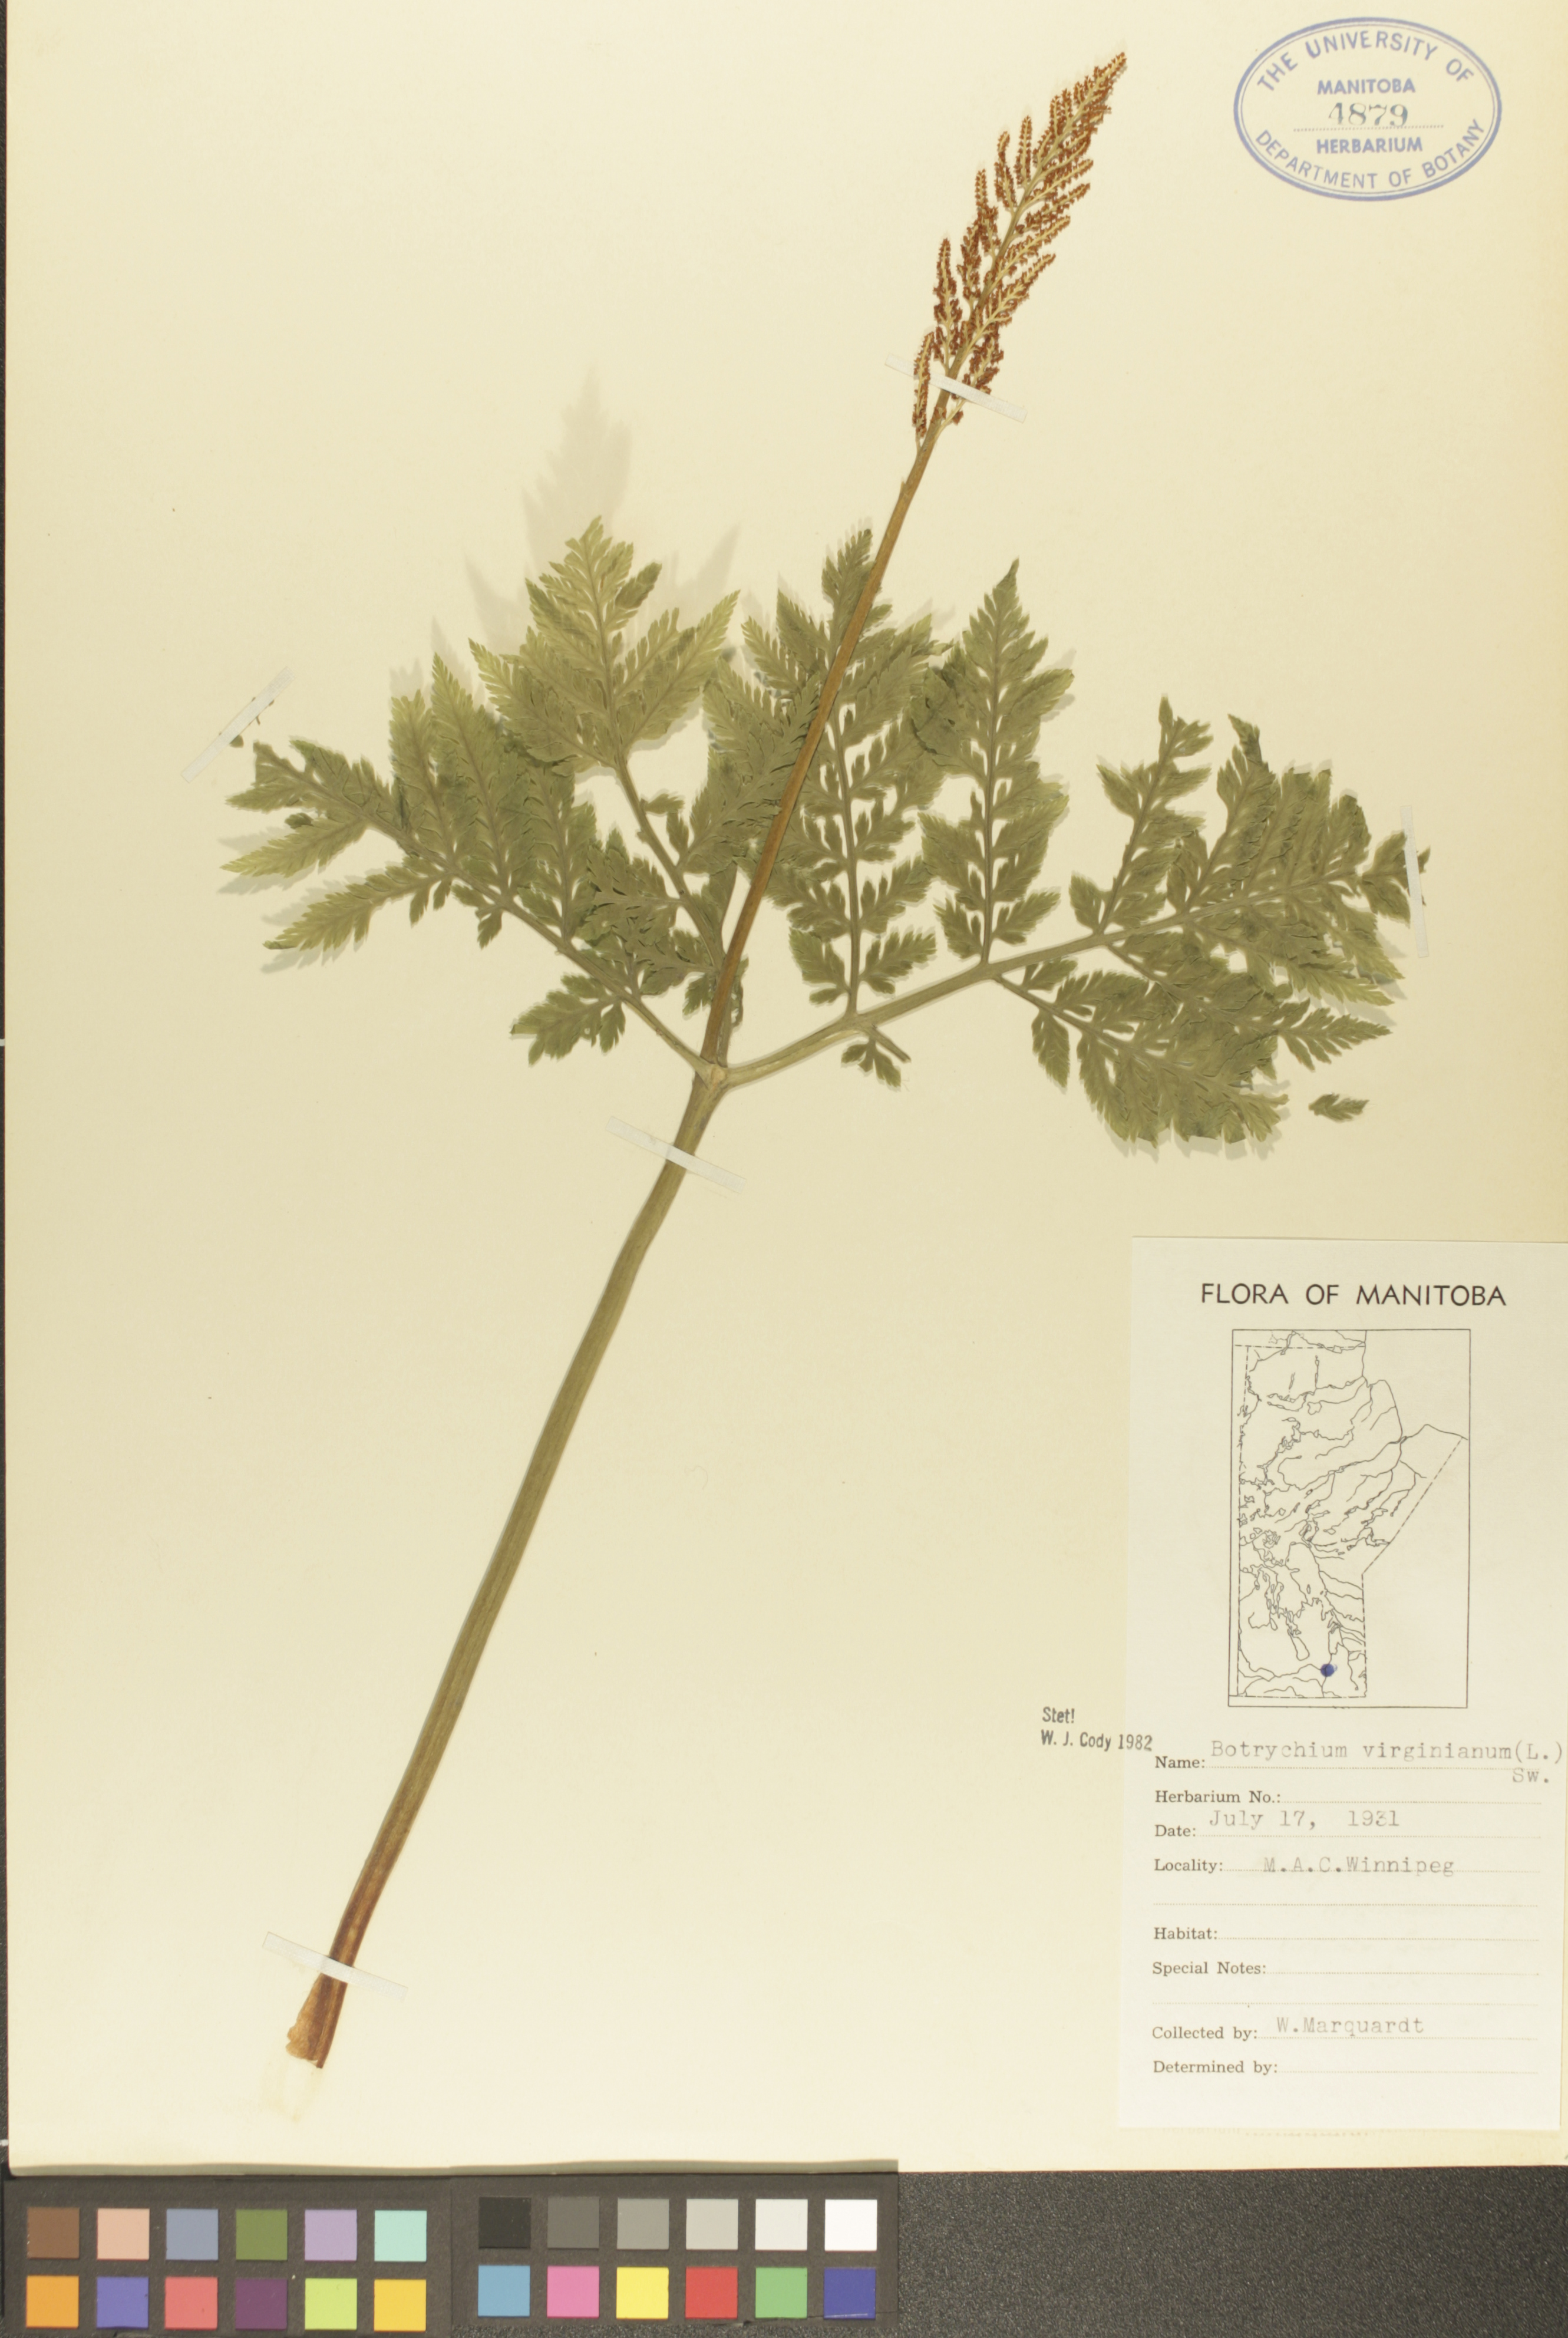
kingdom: Plantae
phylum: Tracheophyta
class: Polypodiopsida
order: Ophioglossales
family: Ophioglossaceae
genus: Botrypus
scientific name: Botrypus virginianus
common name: Common grapefern
